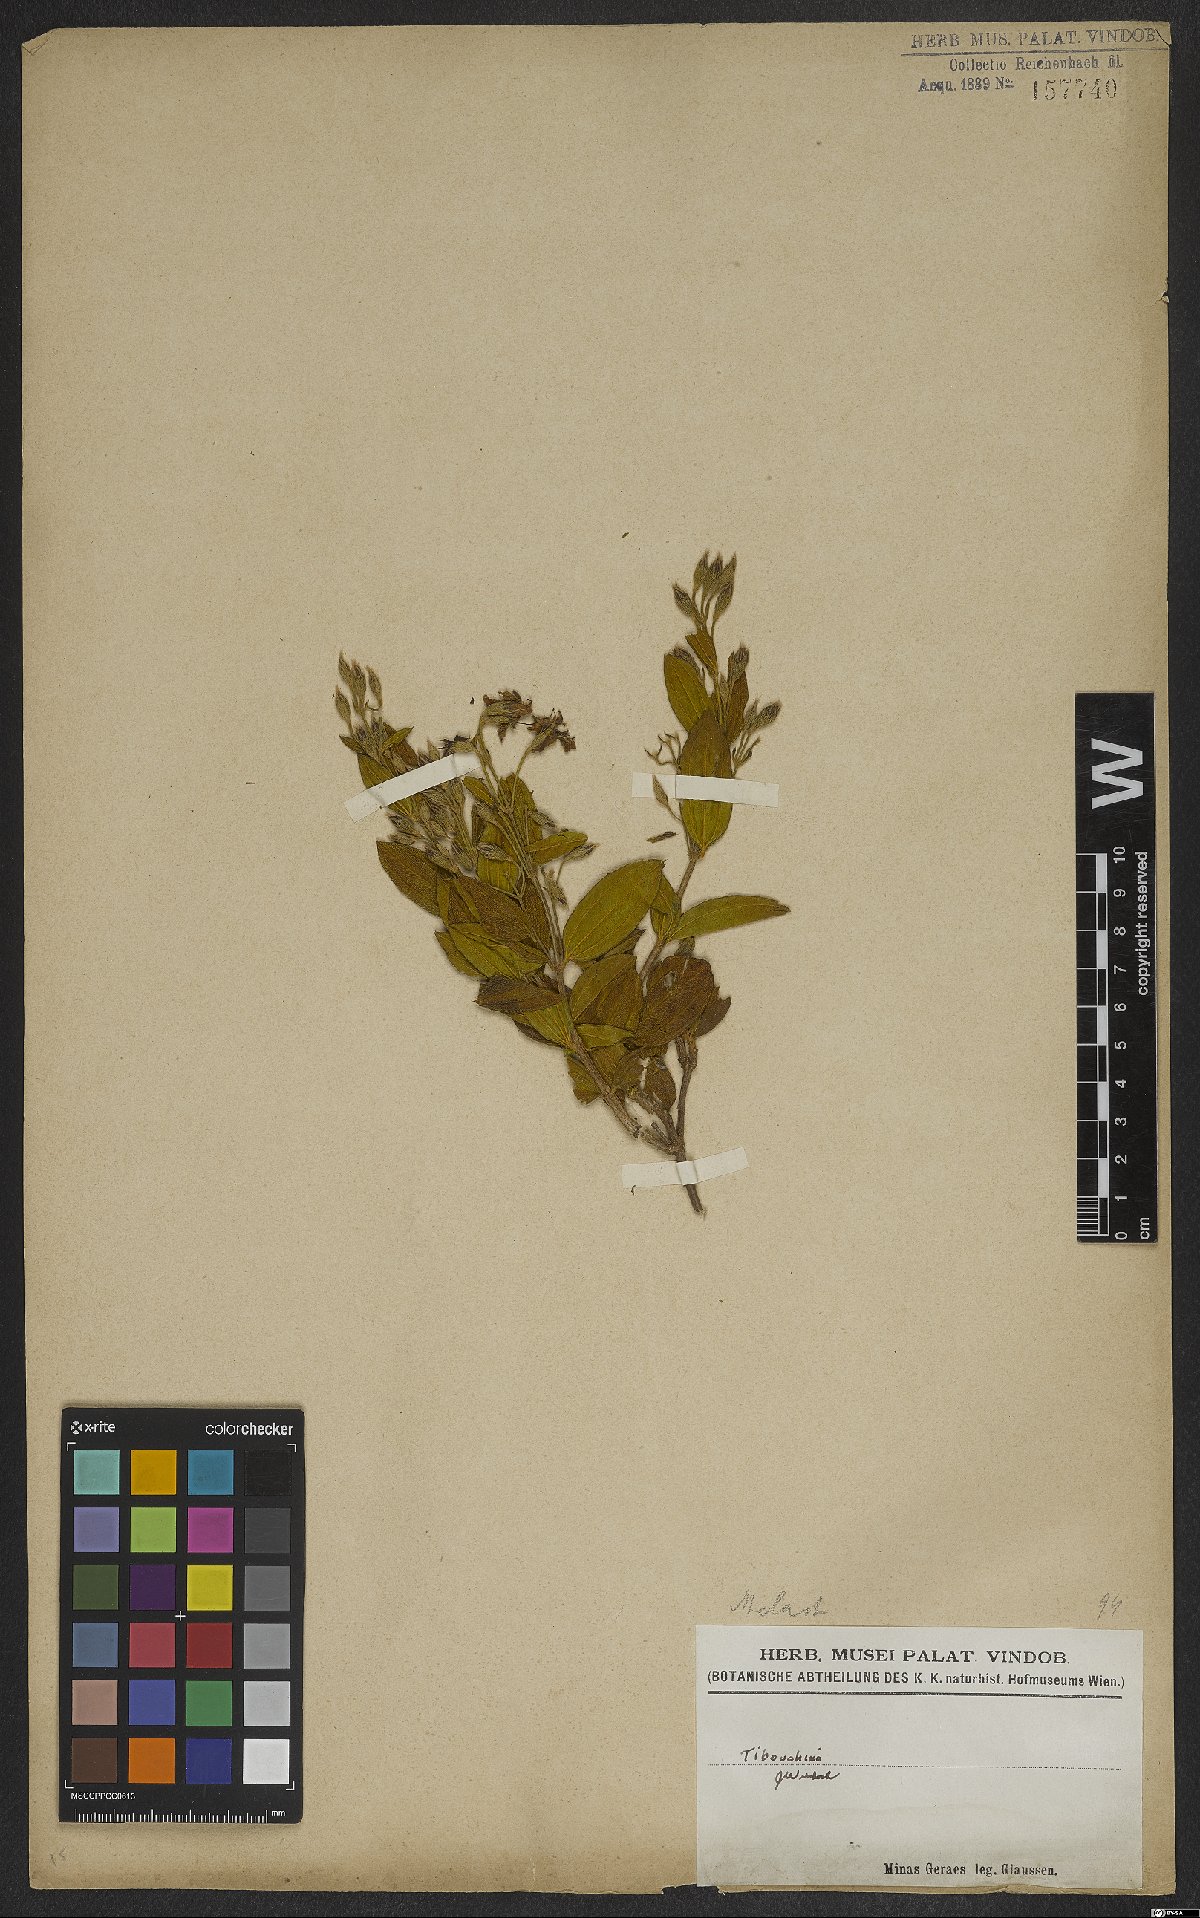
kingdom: Plantae
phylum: Tracheophyta
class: Magnoliopsida
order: Myrtales
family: Melastomataceae
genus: Tibouchina
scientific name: Tibouchina
